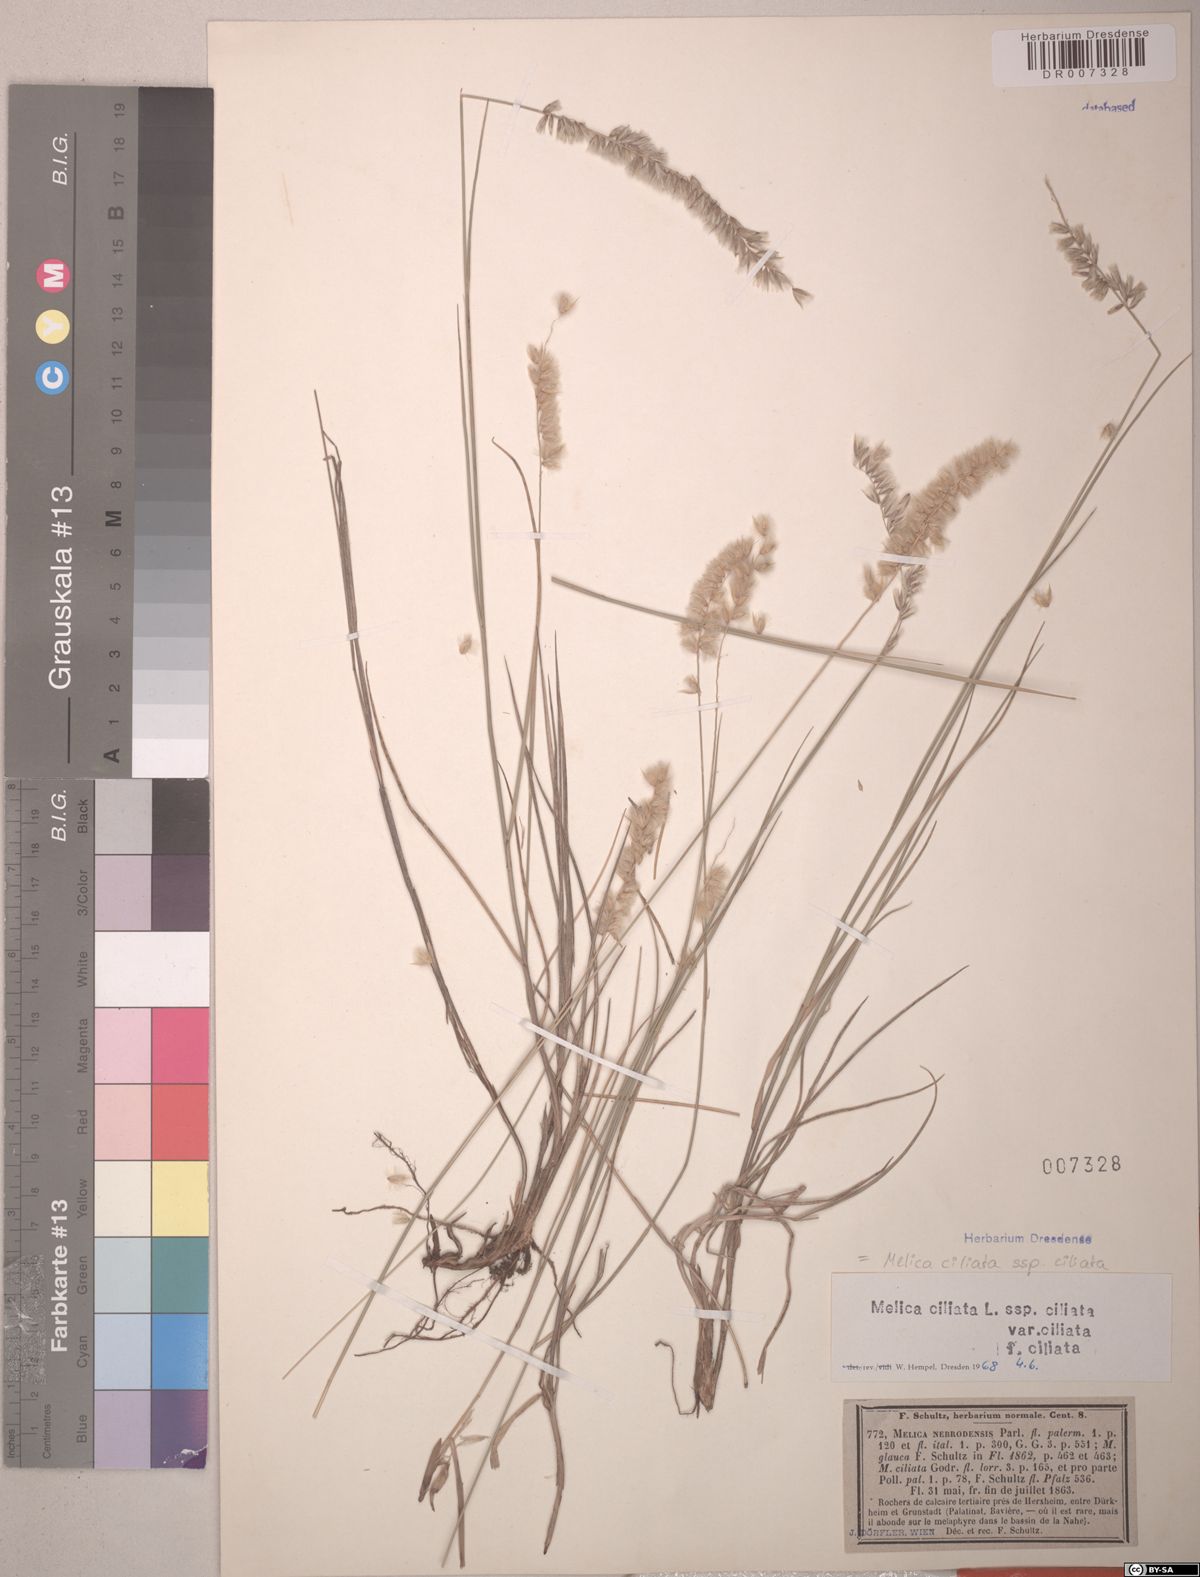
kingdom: Plantae
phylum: Tracheophyta
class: Liliopsida
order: Poales
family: Poaceae
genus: Melica
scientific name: Melica ciliata
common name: Hairy melicgrass
